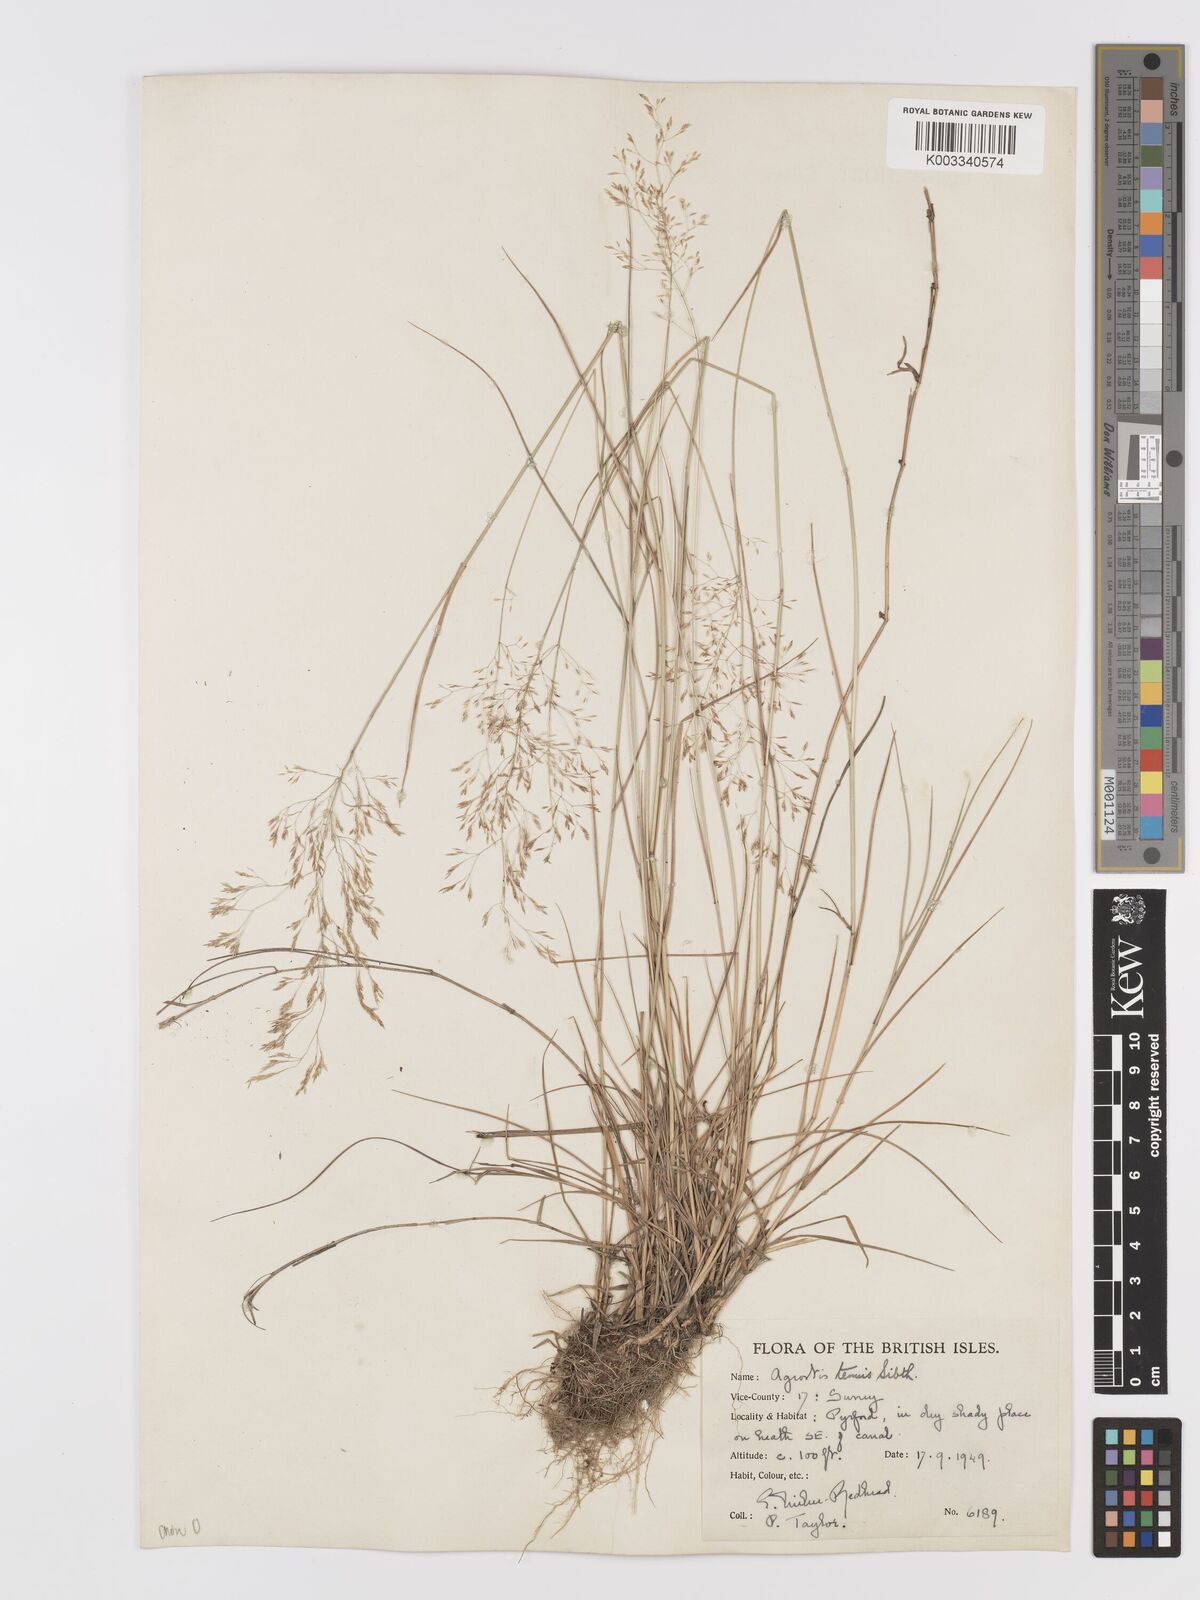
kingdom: Plantae
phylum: Tracheophyta
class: Liliopsida
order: Poales
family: Poaceae
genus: Agrostis
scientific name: Agrostis capillaris
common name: Colonial bentgrass
